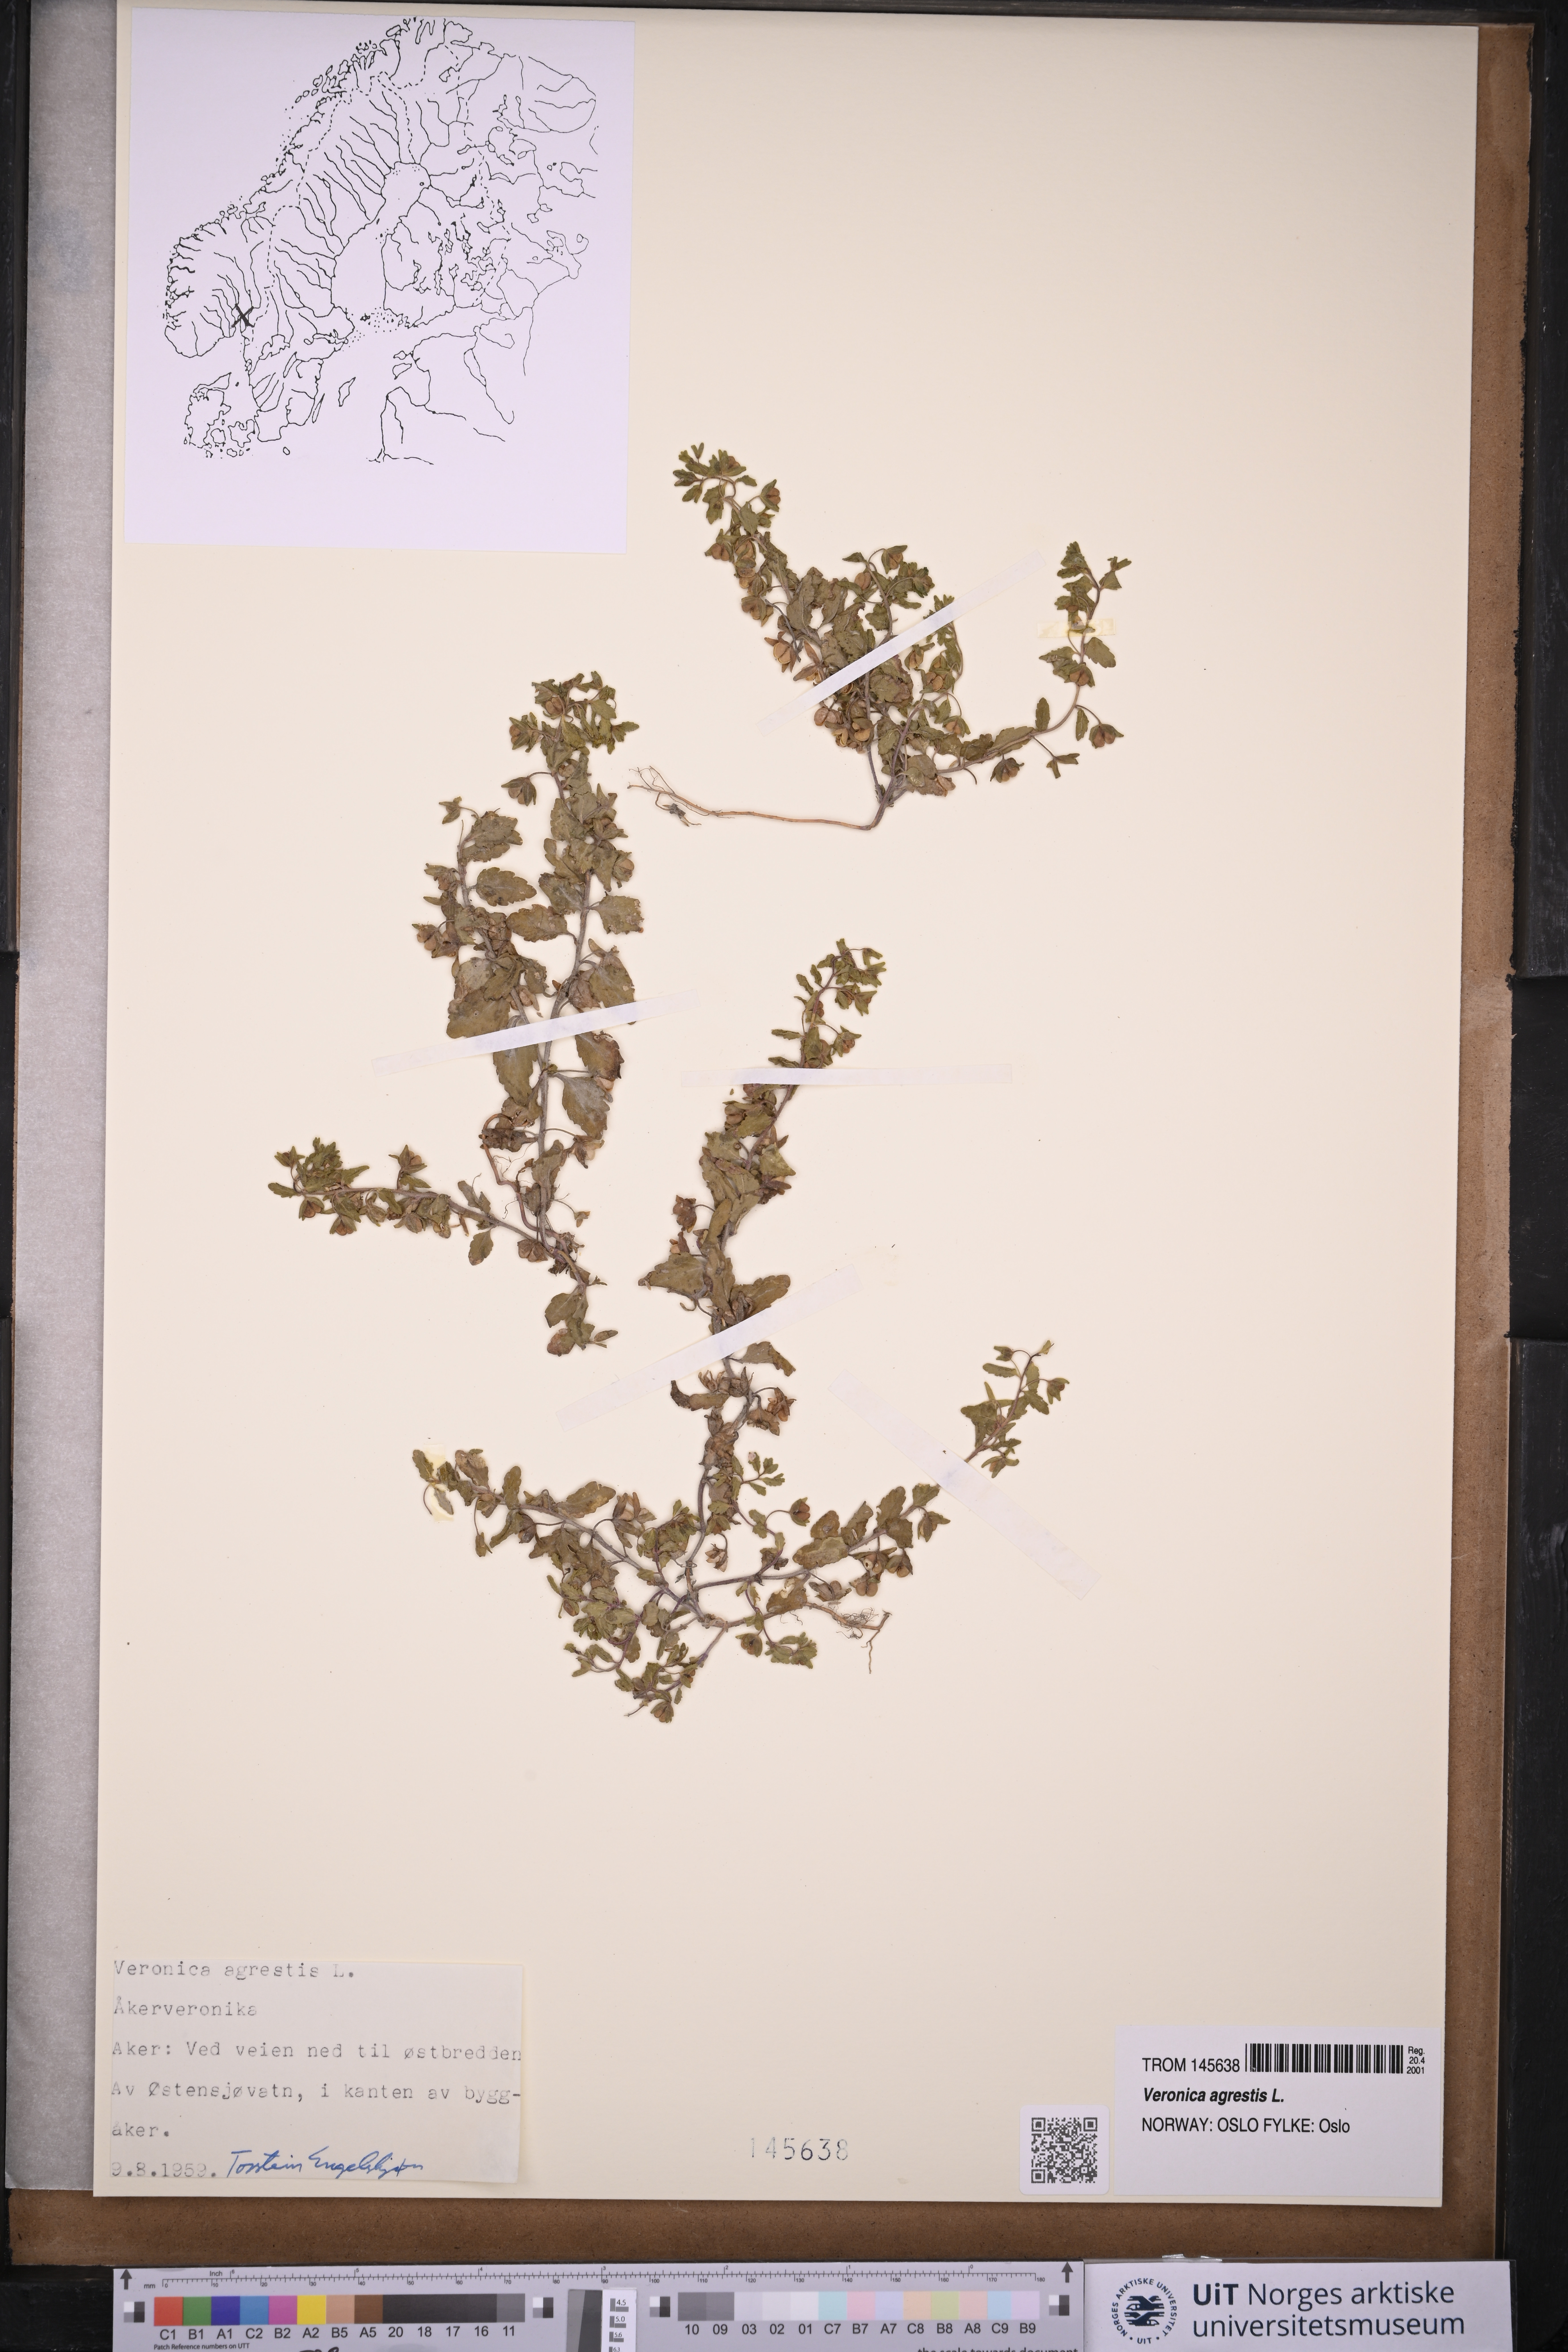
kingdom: Plantae
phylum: Tracheophyta
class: Magnoliopsida
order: Lamiales
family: Plantaginaceae
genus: Veronica
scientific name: Veronica agrestis
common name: Green field-speedwell
